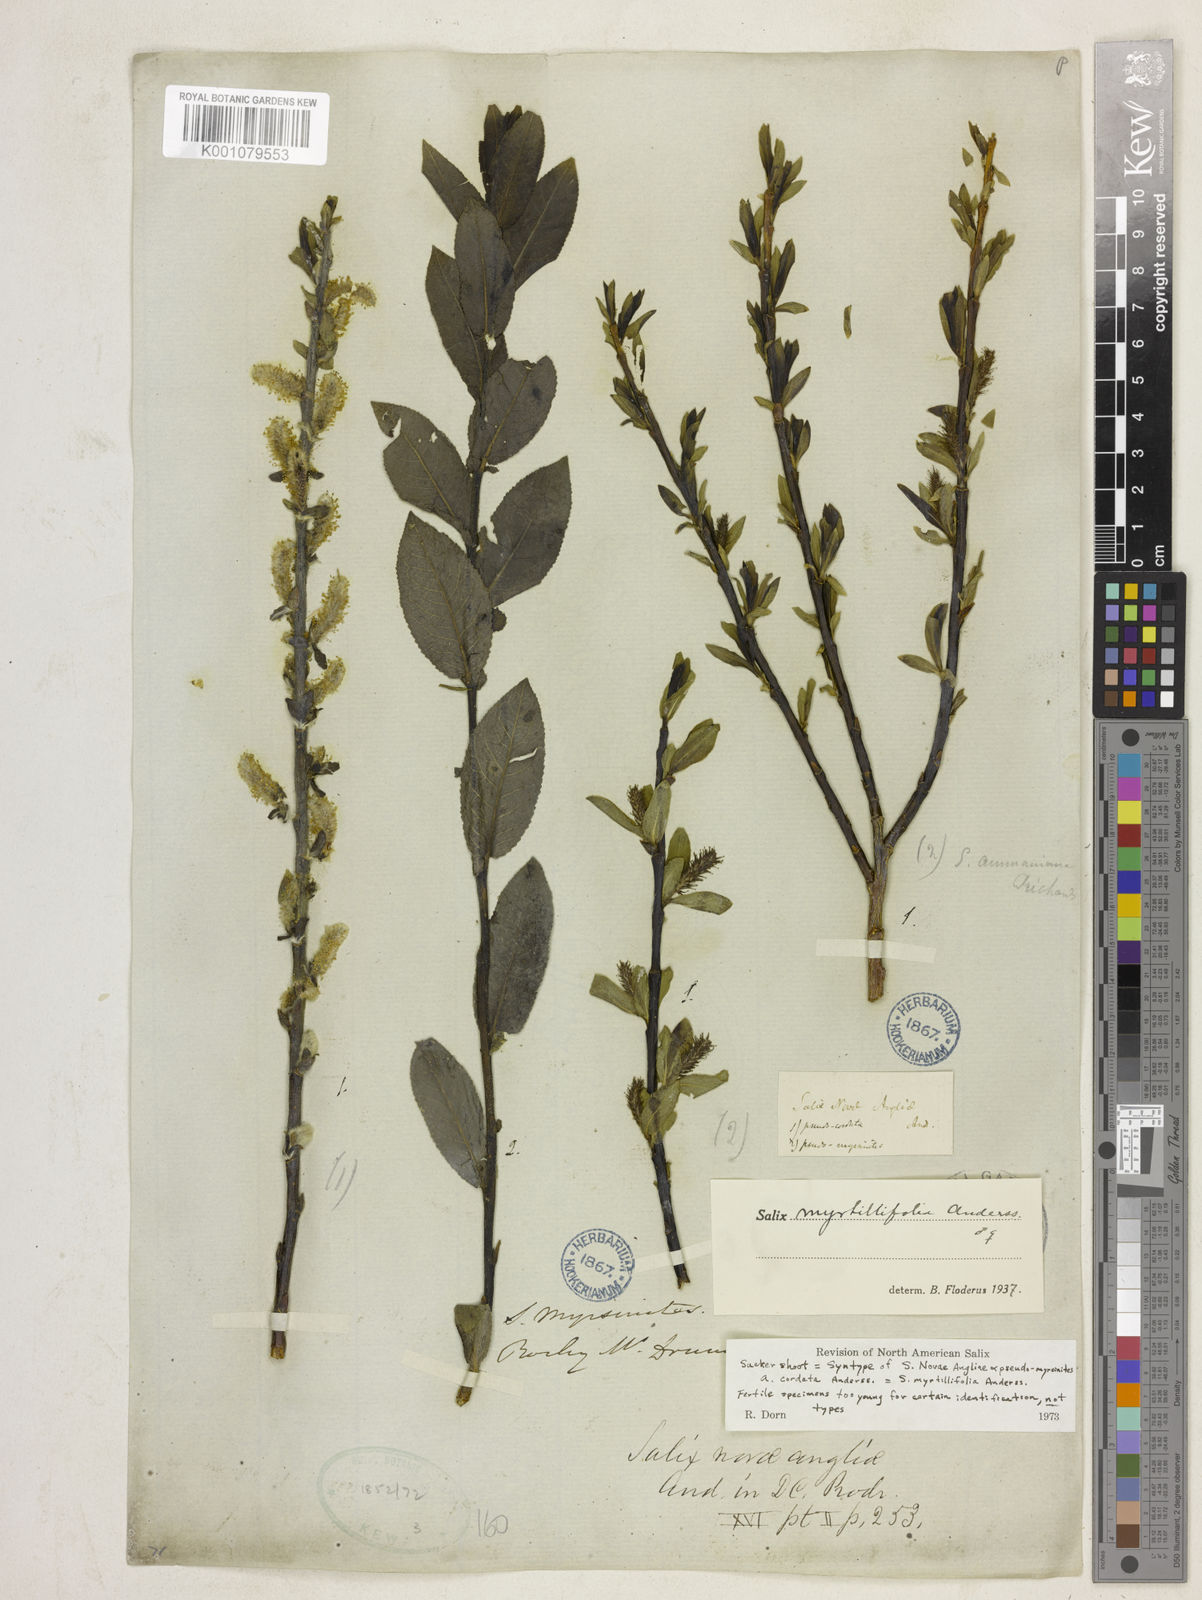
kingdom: Plantae
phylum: Tracheophyta
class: Magnoliopsida
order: Malpighiales
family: Salicaceae
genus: Salix
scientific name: Salix myrtillifolia
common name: Bilberry willow
